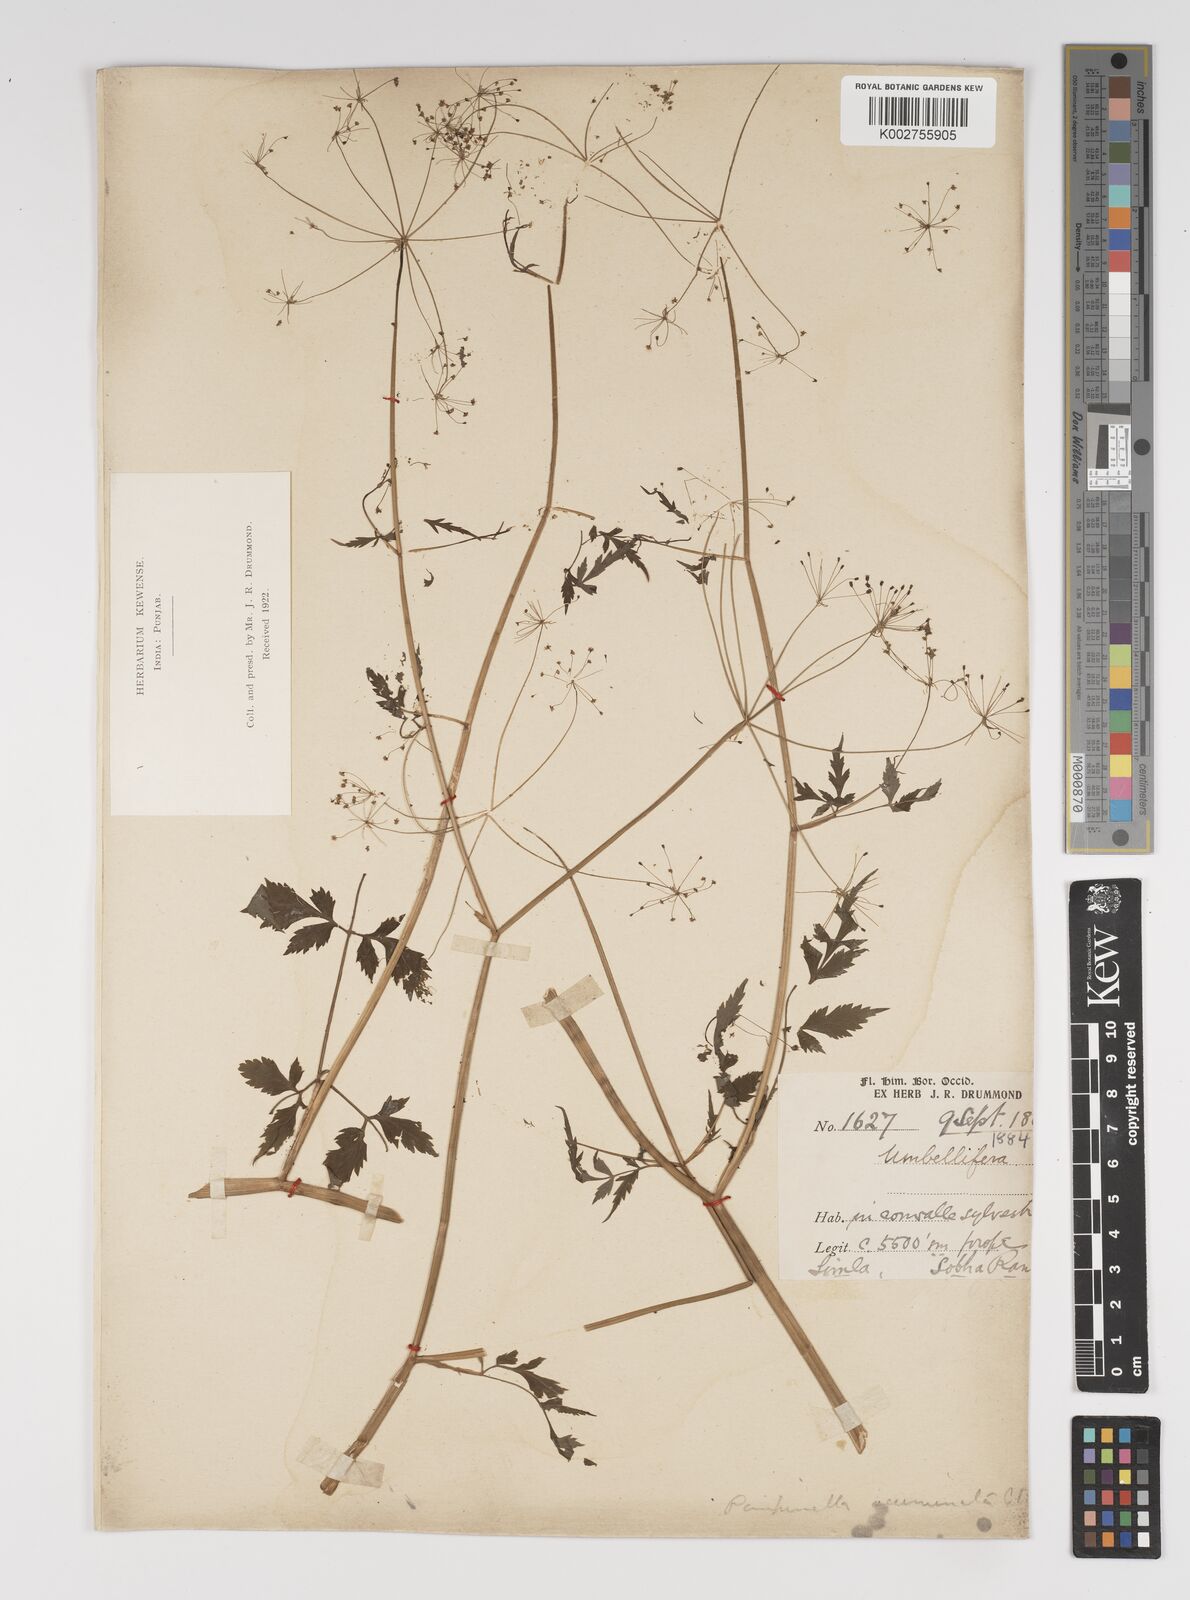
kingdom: Plantae
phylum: Tracheophyta
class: Magnoliopsida
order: Apiales
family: Apiaceae
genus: Pimpinella
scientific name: Pimpinella acuminata
